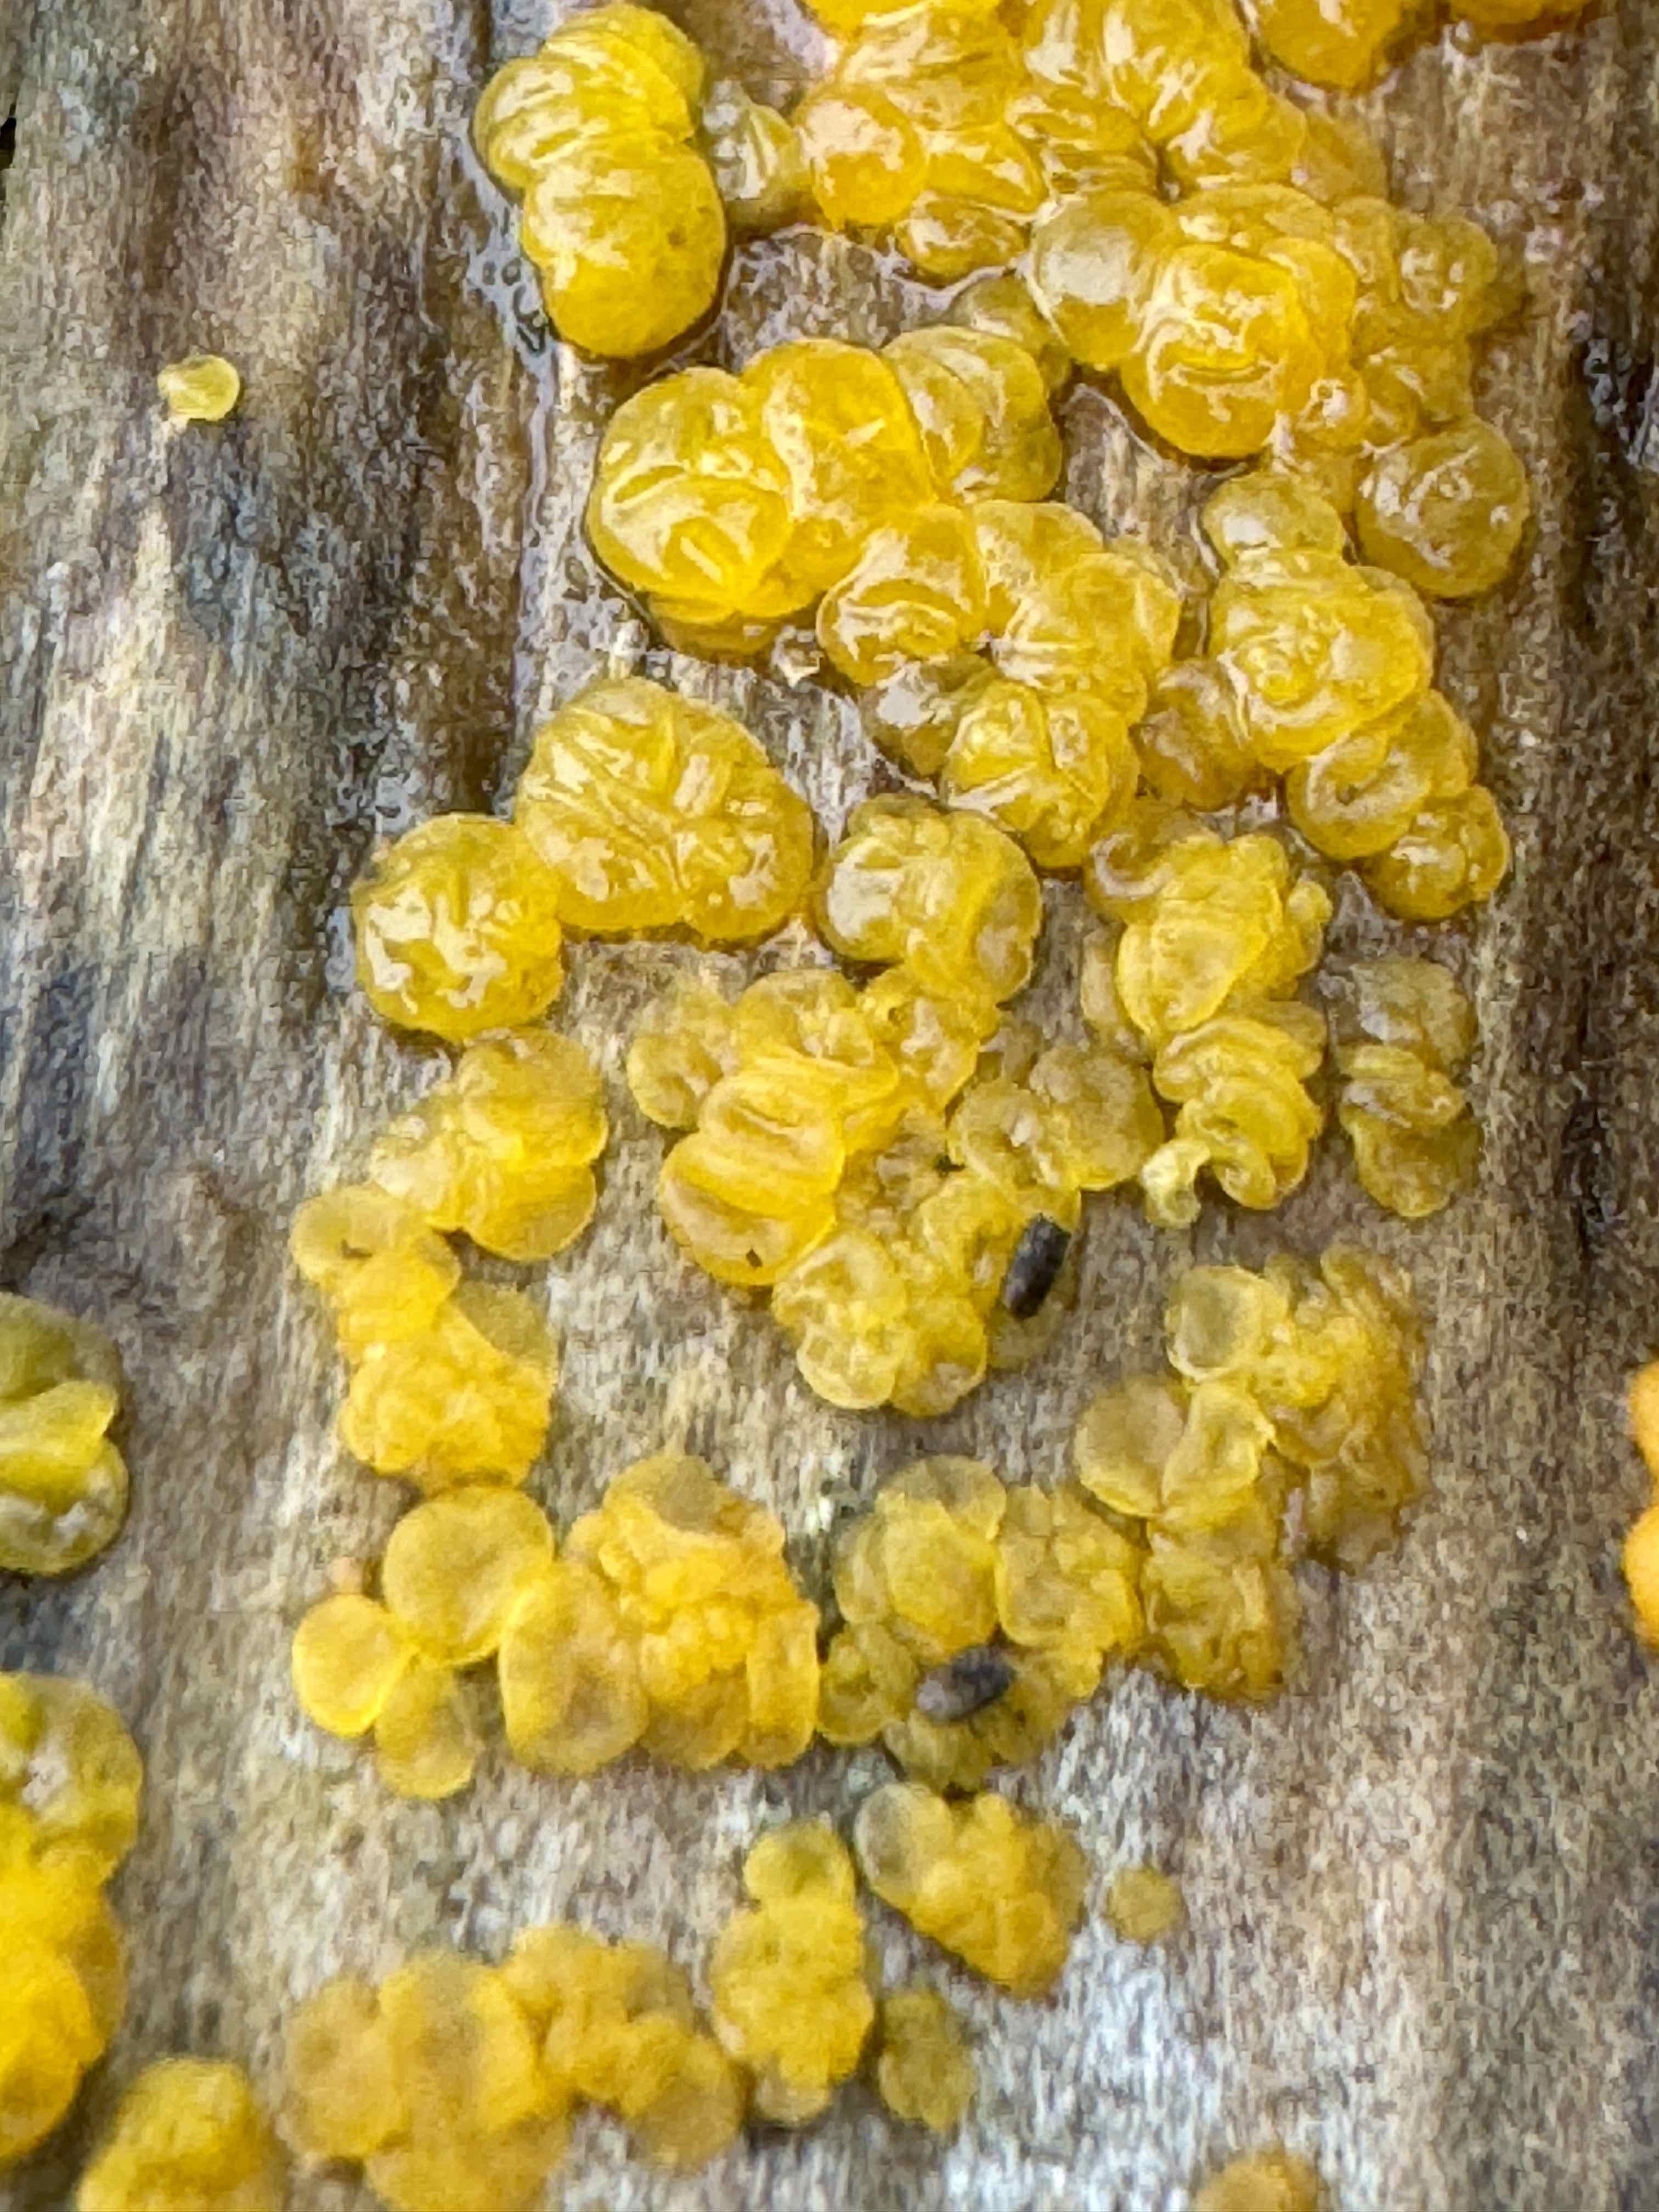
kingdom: Fungi
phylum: Basidiomycota
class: Dacrymycetes
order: Dacrymycetales
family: Dacrymycetaceae
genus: Dacrymyces
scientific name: Dacrymyces lacrymalis
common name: rynket tåresvamp
